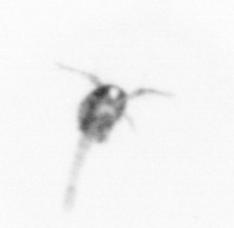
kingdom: Animalia
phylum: Arthropoda
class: Copepoda
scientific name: Copepoda
